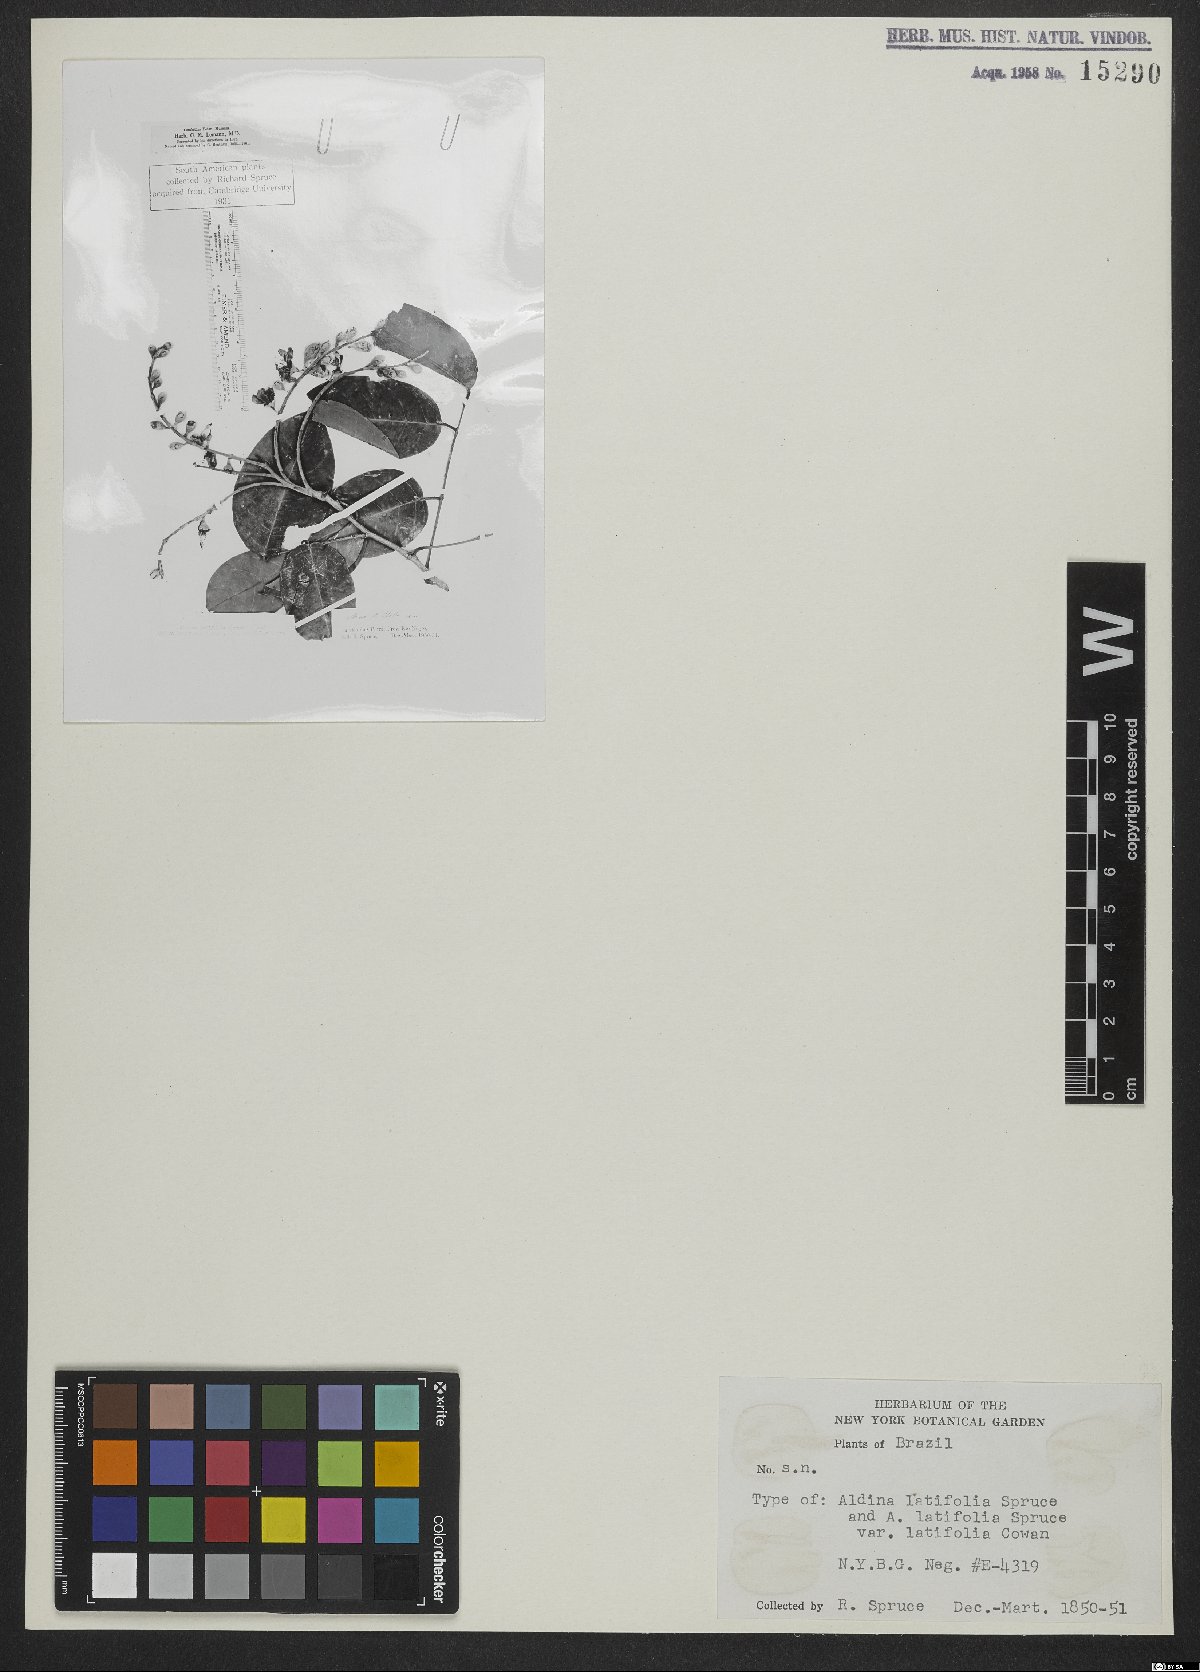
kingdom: Plantae
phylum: Tracheophyta
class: Magnoliopsida
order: Fabales
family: Fabaceae
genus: Aldina
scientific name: Aldina latifolia
